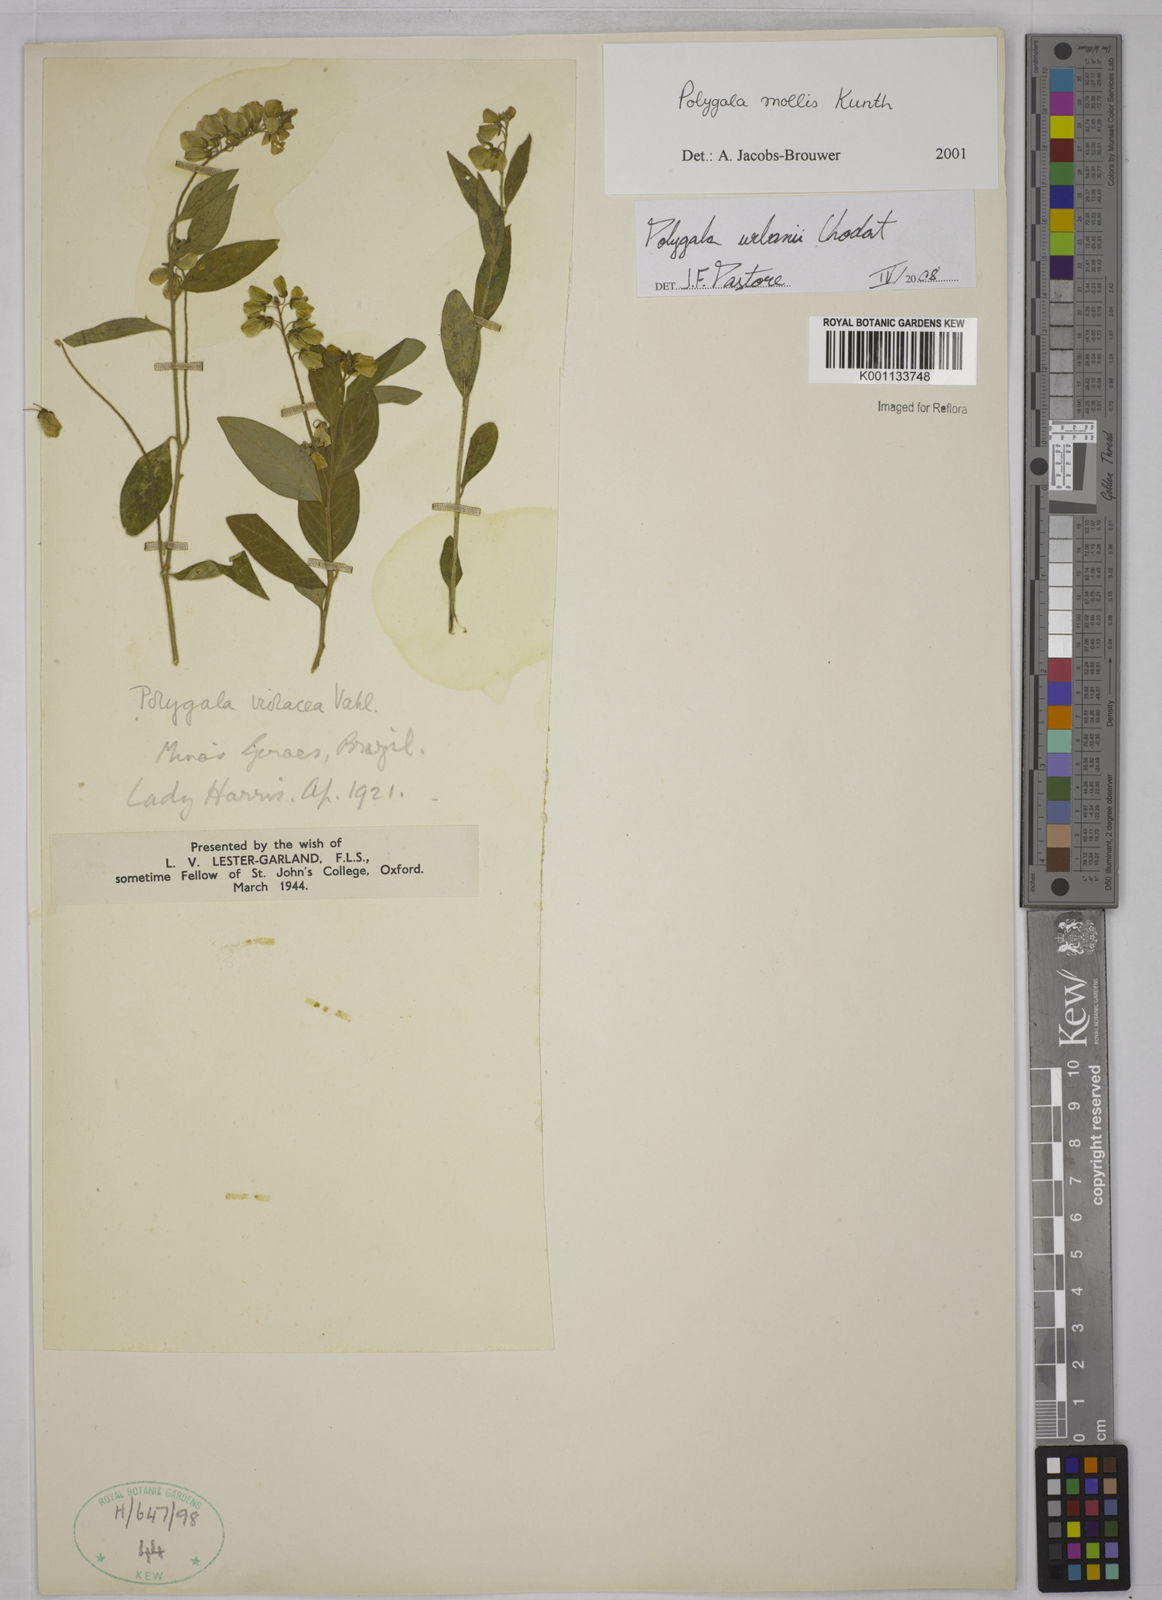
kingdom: Plantae
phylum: Tracheophyta
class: Magnoliopsida
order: Fabales
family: Polygalaceae
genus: Asemeia
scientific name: Asemeia monninoides
